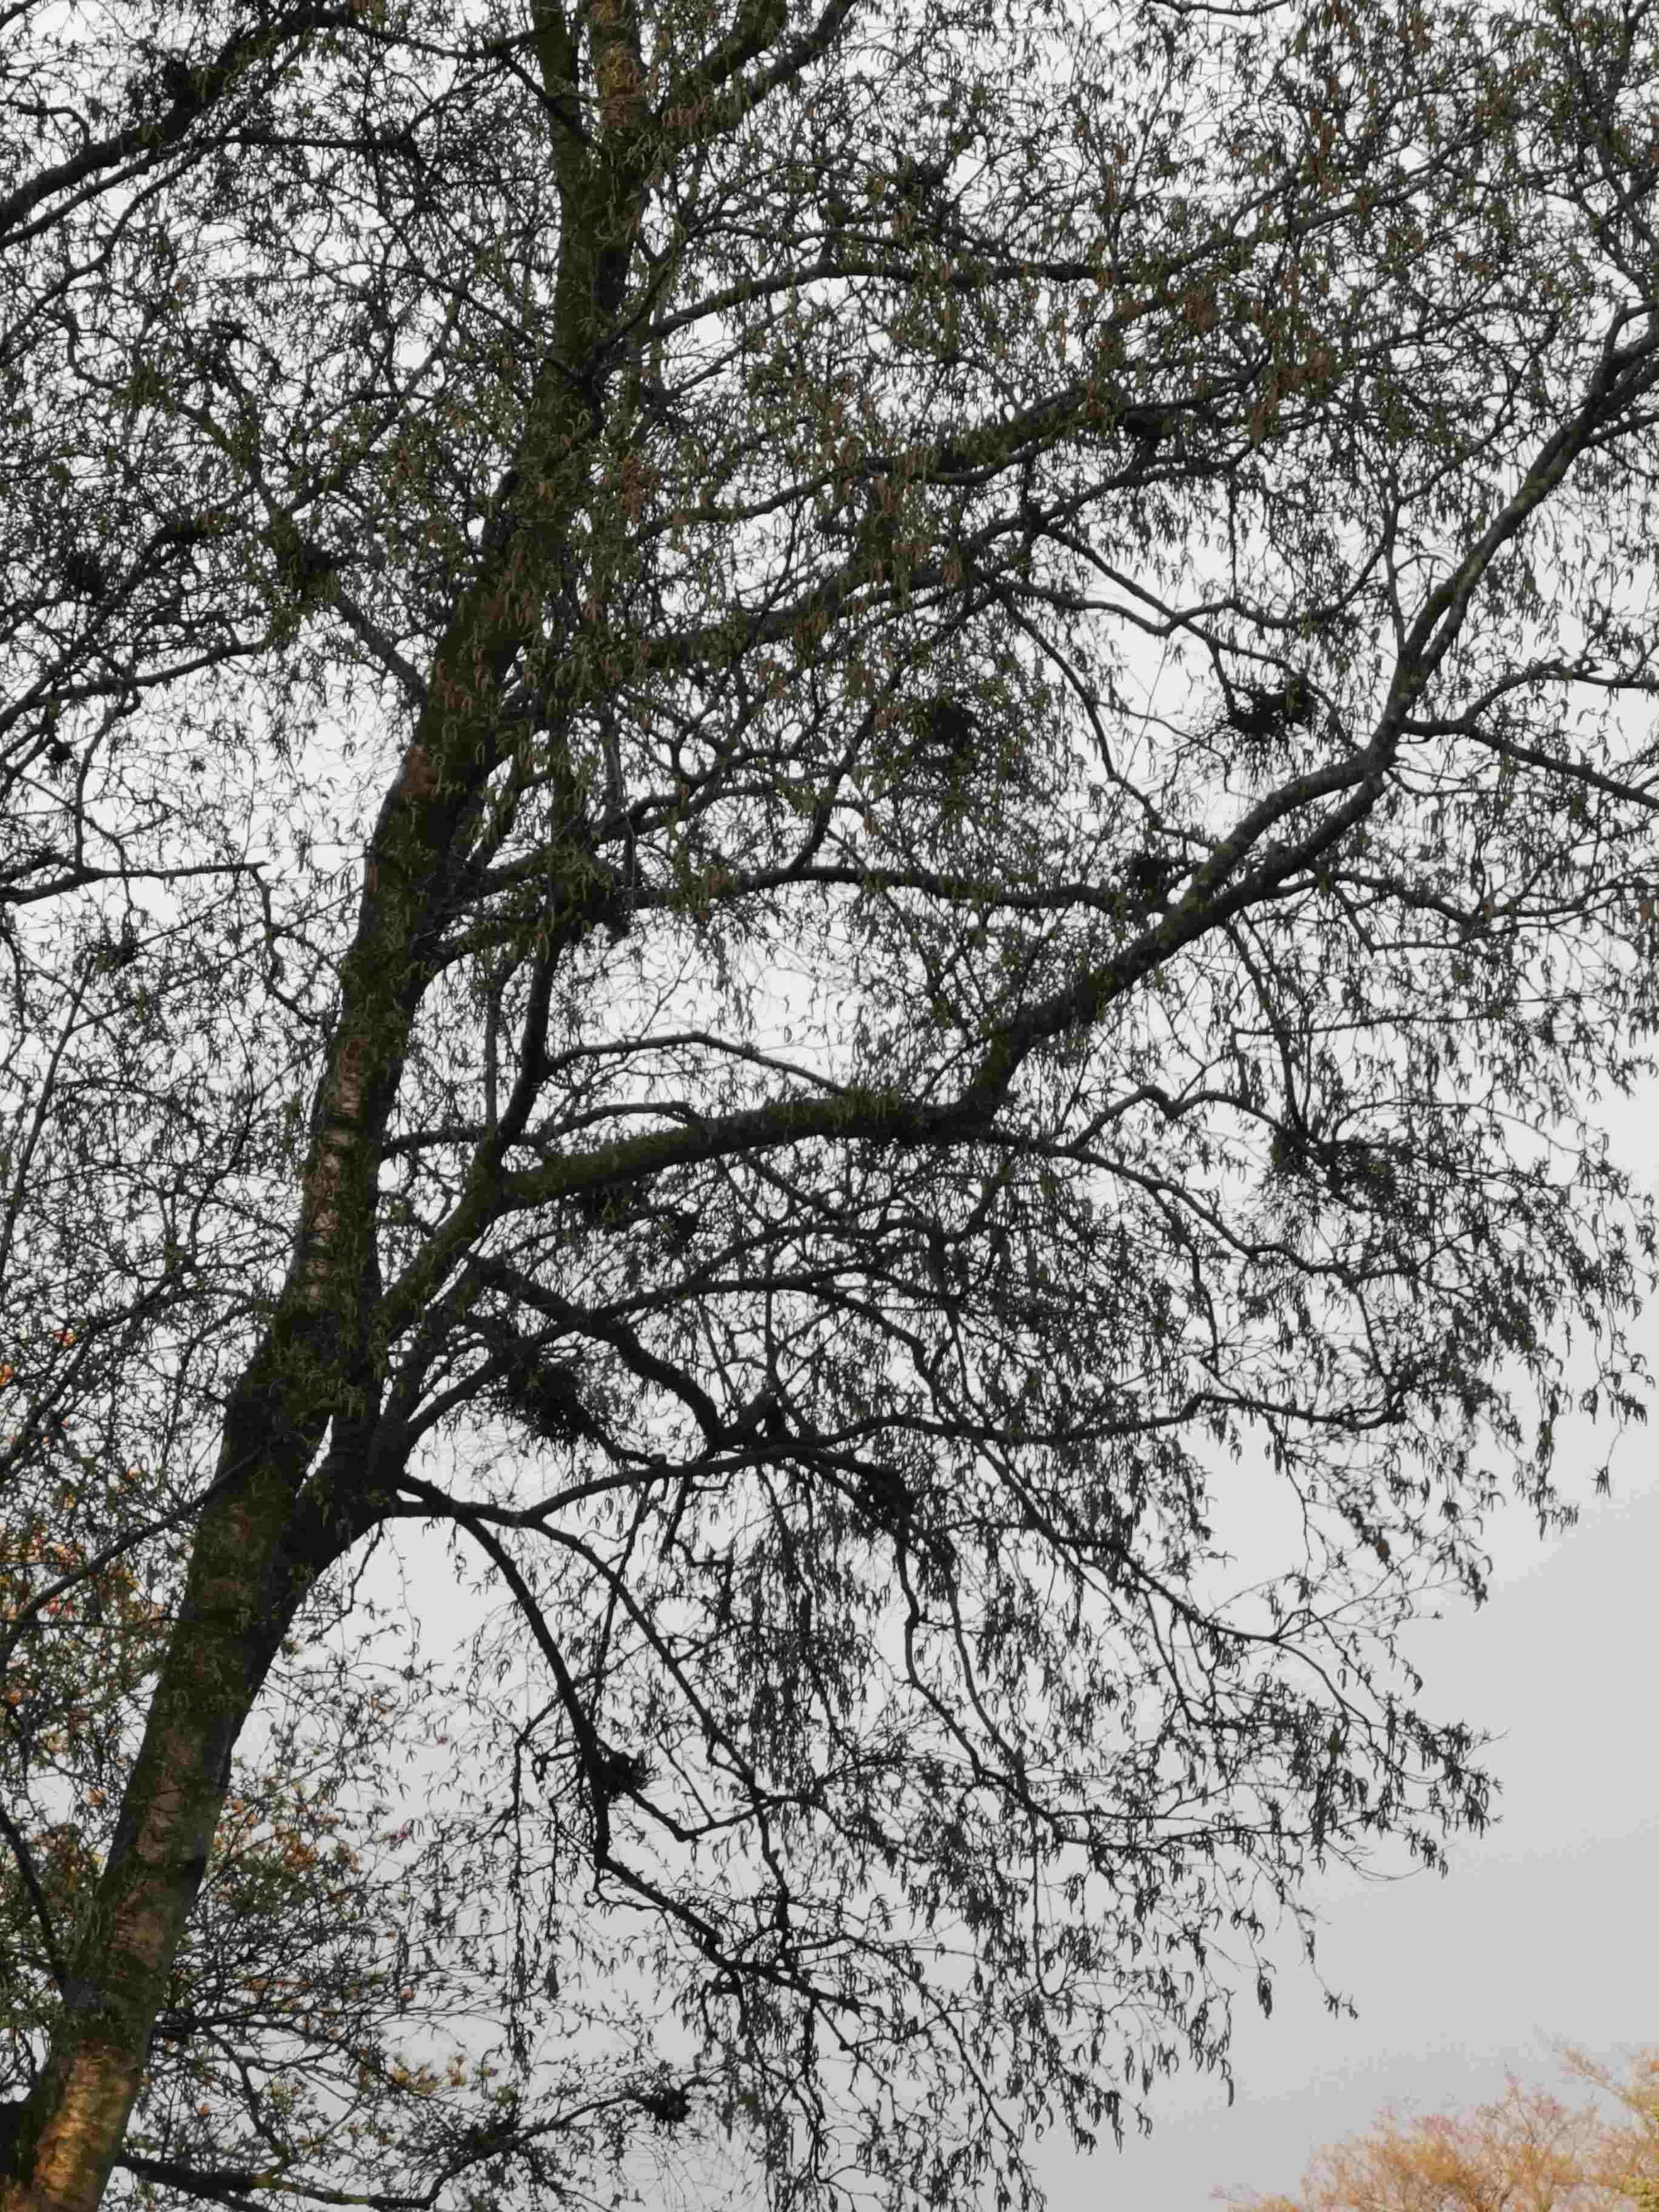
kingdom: Fungi
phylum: Ascomycota
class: Taphrinomycetes
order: Taphrinales
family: Taphrinaceae
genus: Taphrina
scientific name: Taphrina betulina
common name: hekse-sækdug
